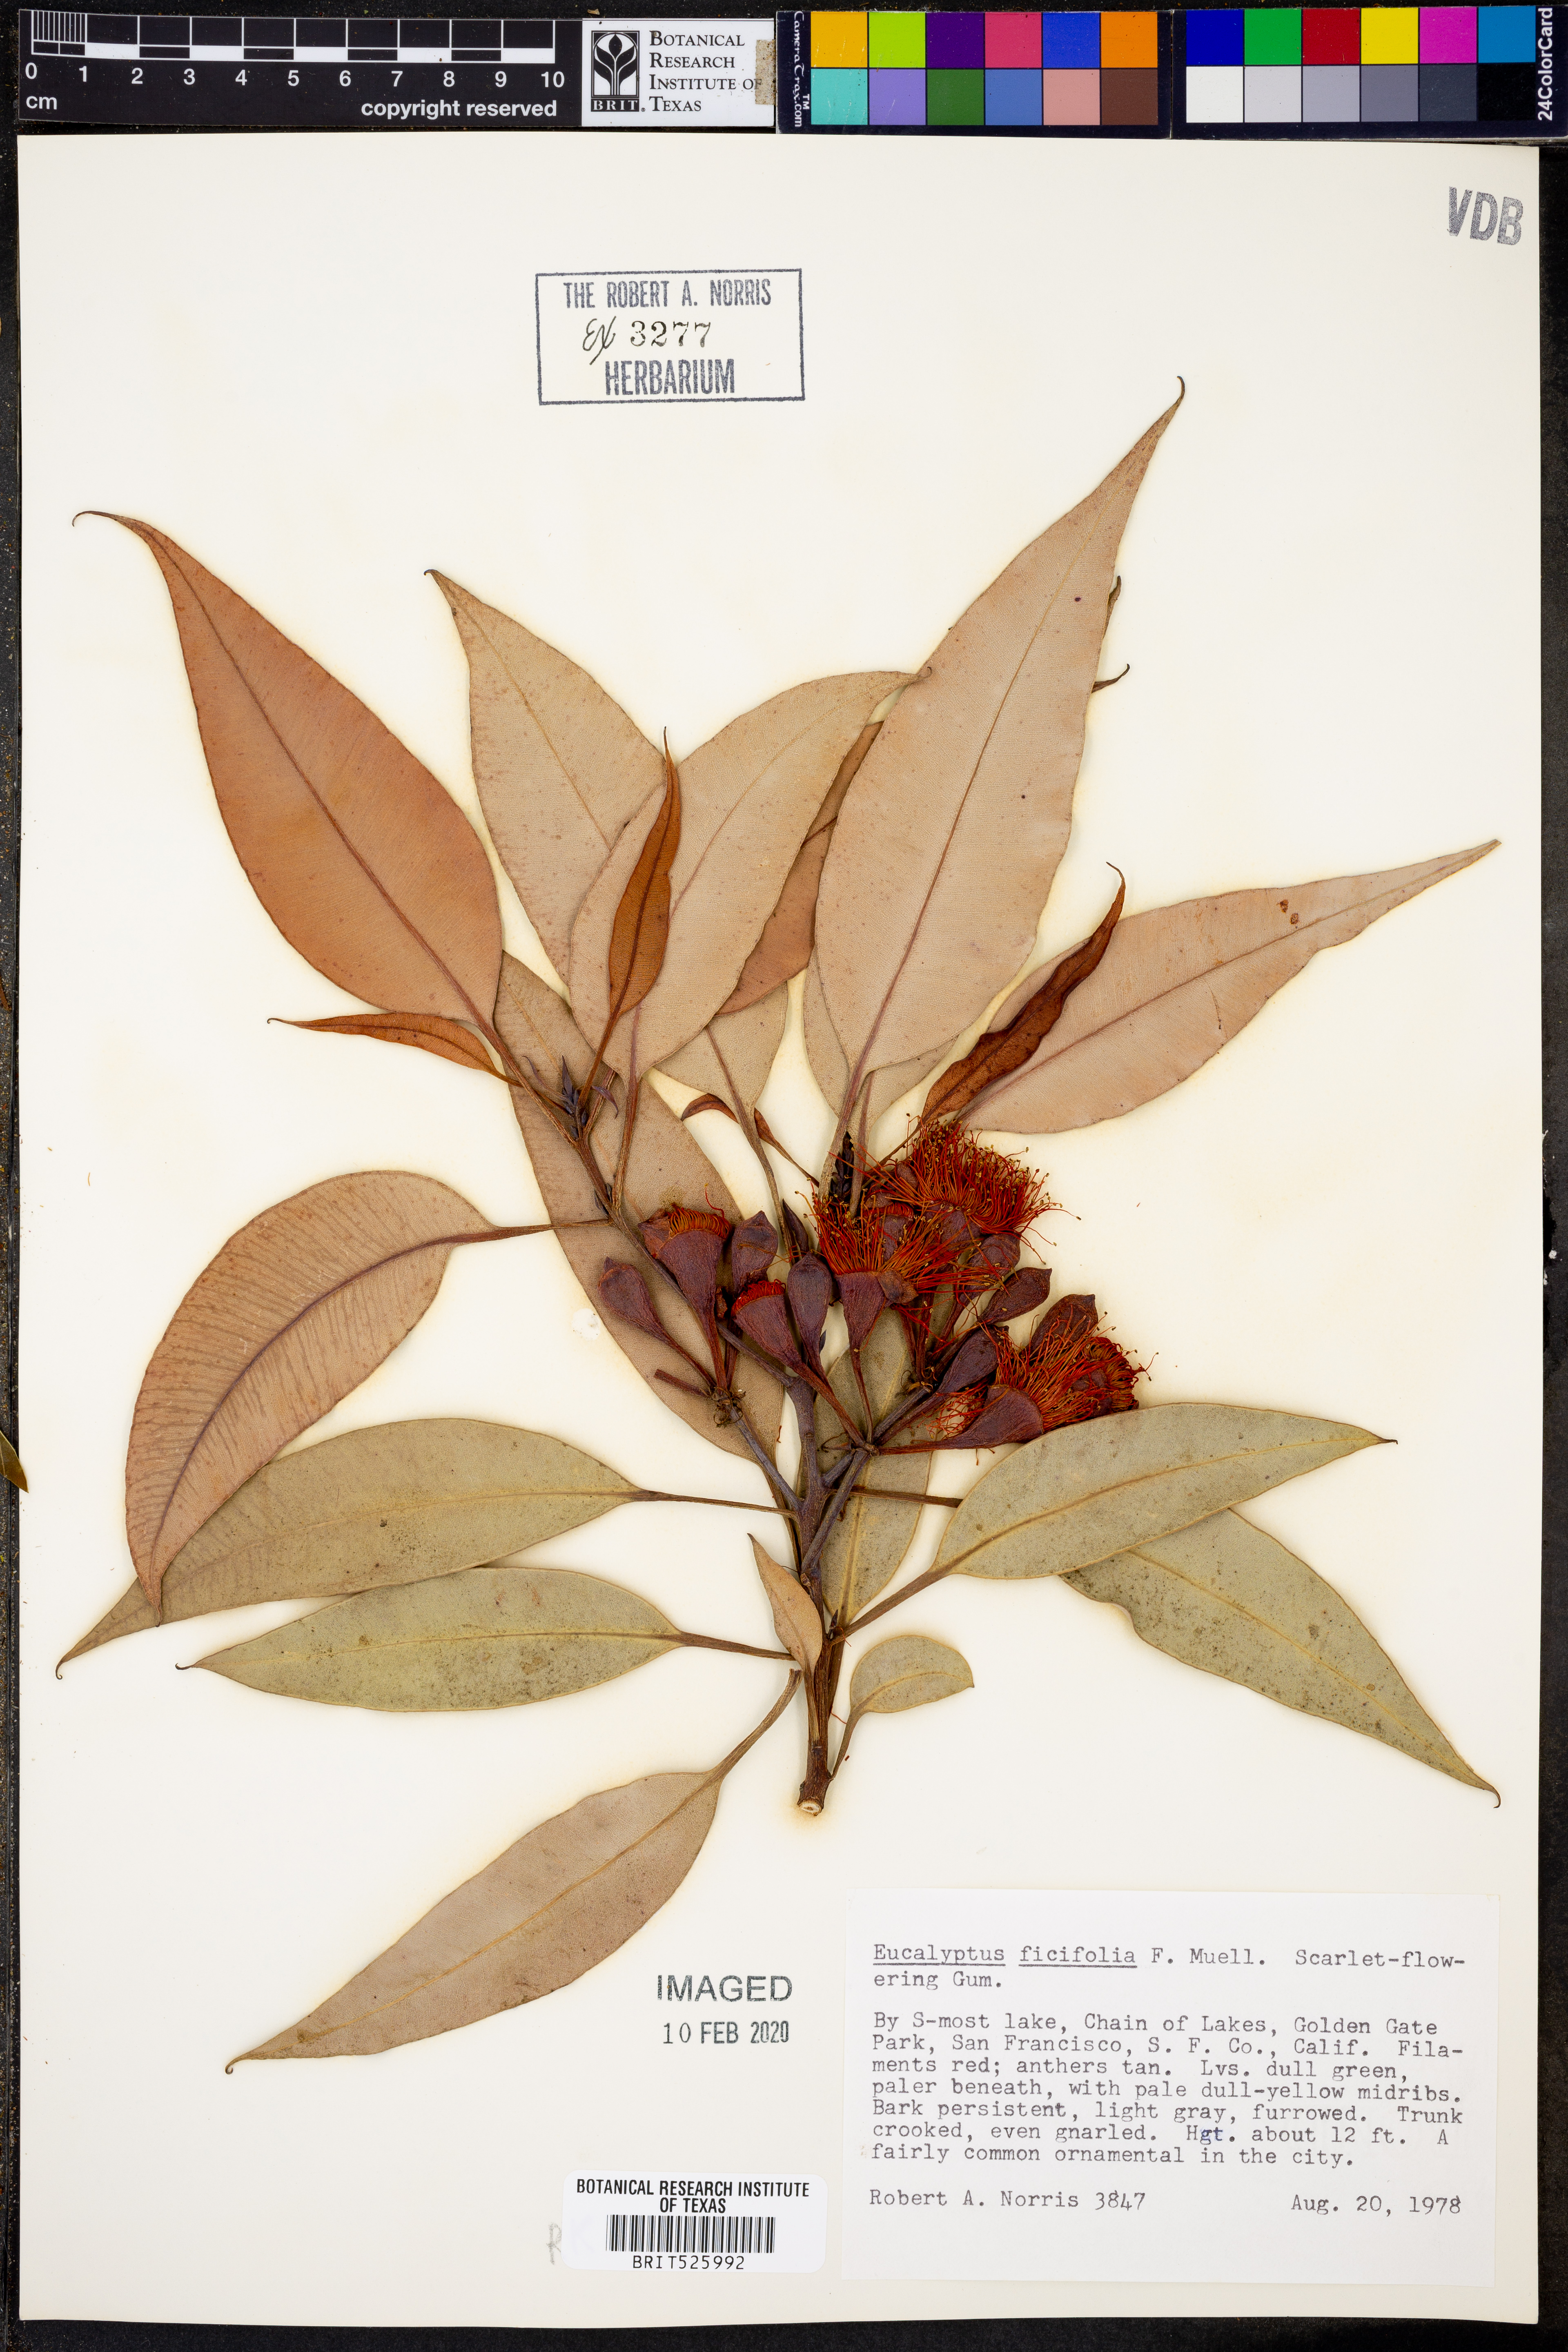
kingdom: Plantae
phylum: Tracheophyta
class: Magnoliopsida
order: Myrtales
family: Myrtaceae
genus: Corymbia
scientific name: Corymbia ficifolia
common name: Redflower gum
